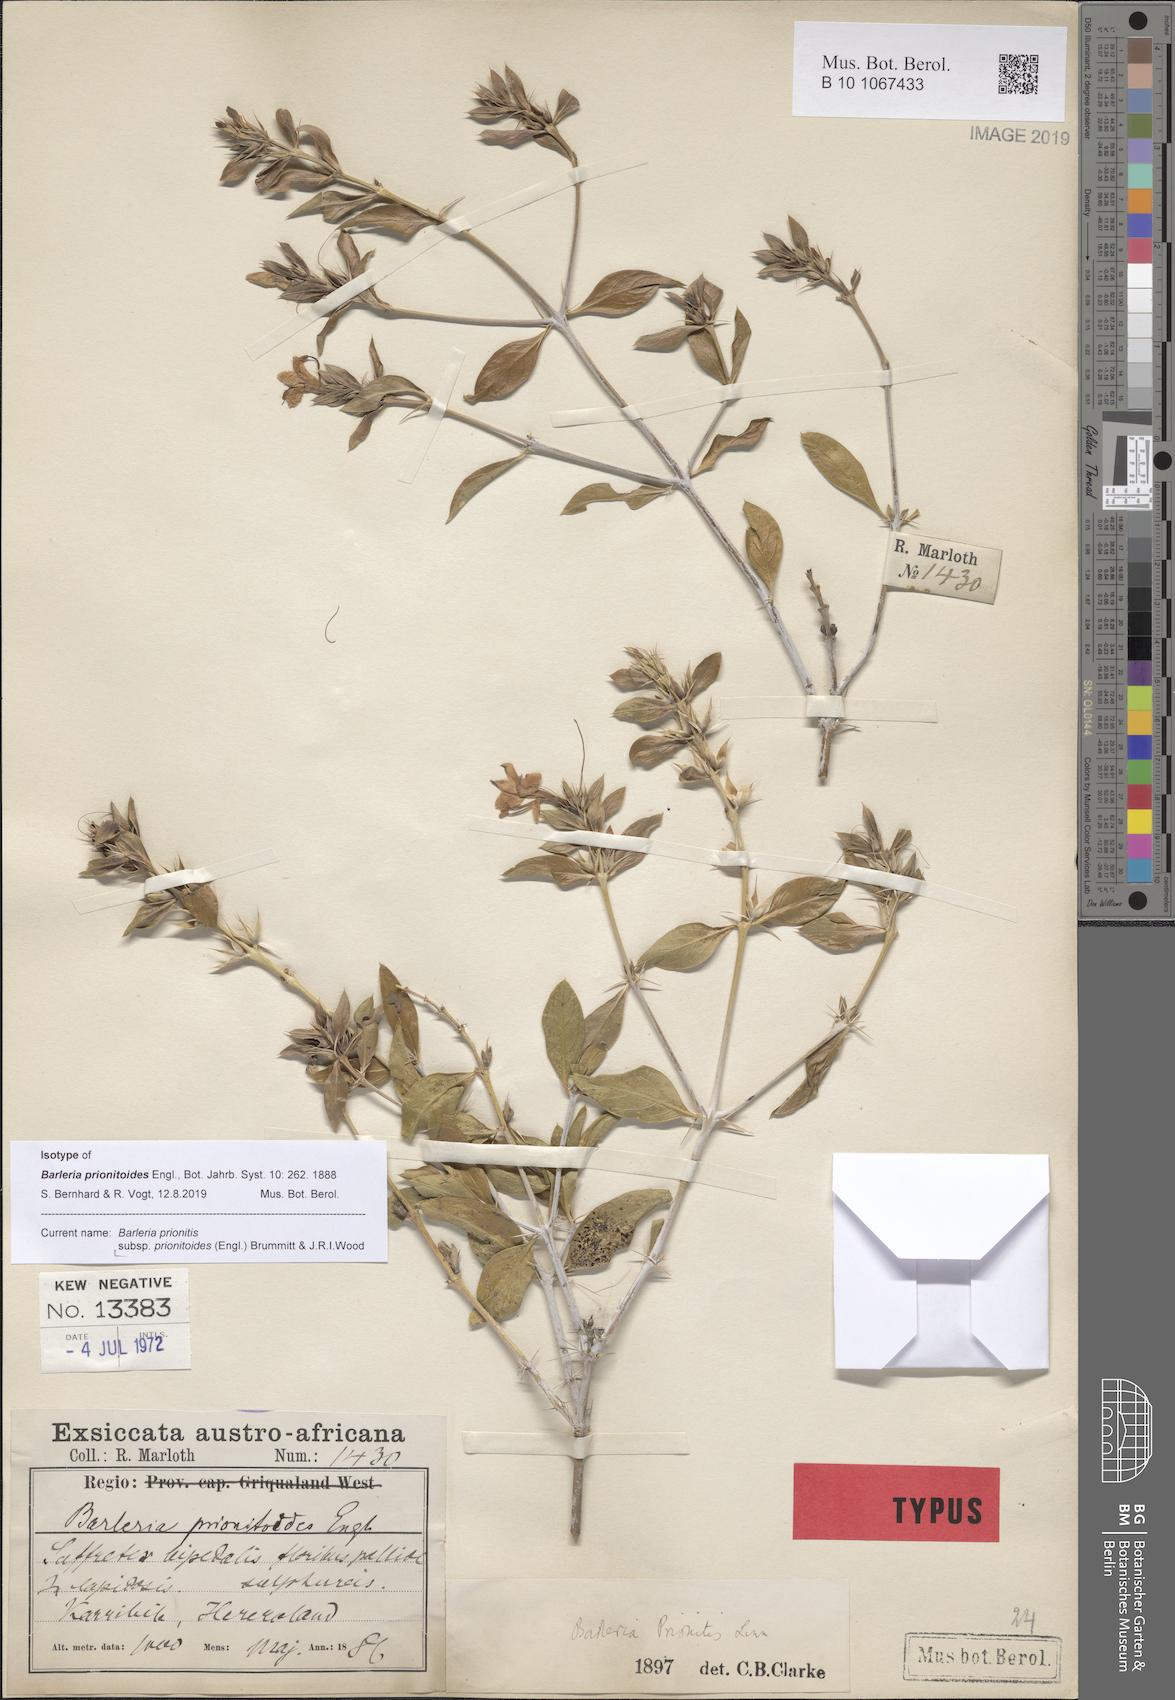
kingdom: Plantae
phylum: Tracheophyta
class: Magnoliopsida
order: Lamiales
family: Acanthaceae
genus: Barleria
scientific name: Barleria prionitoides
